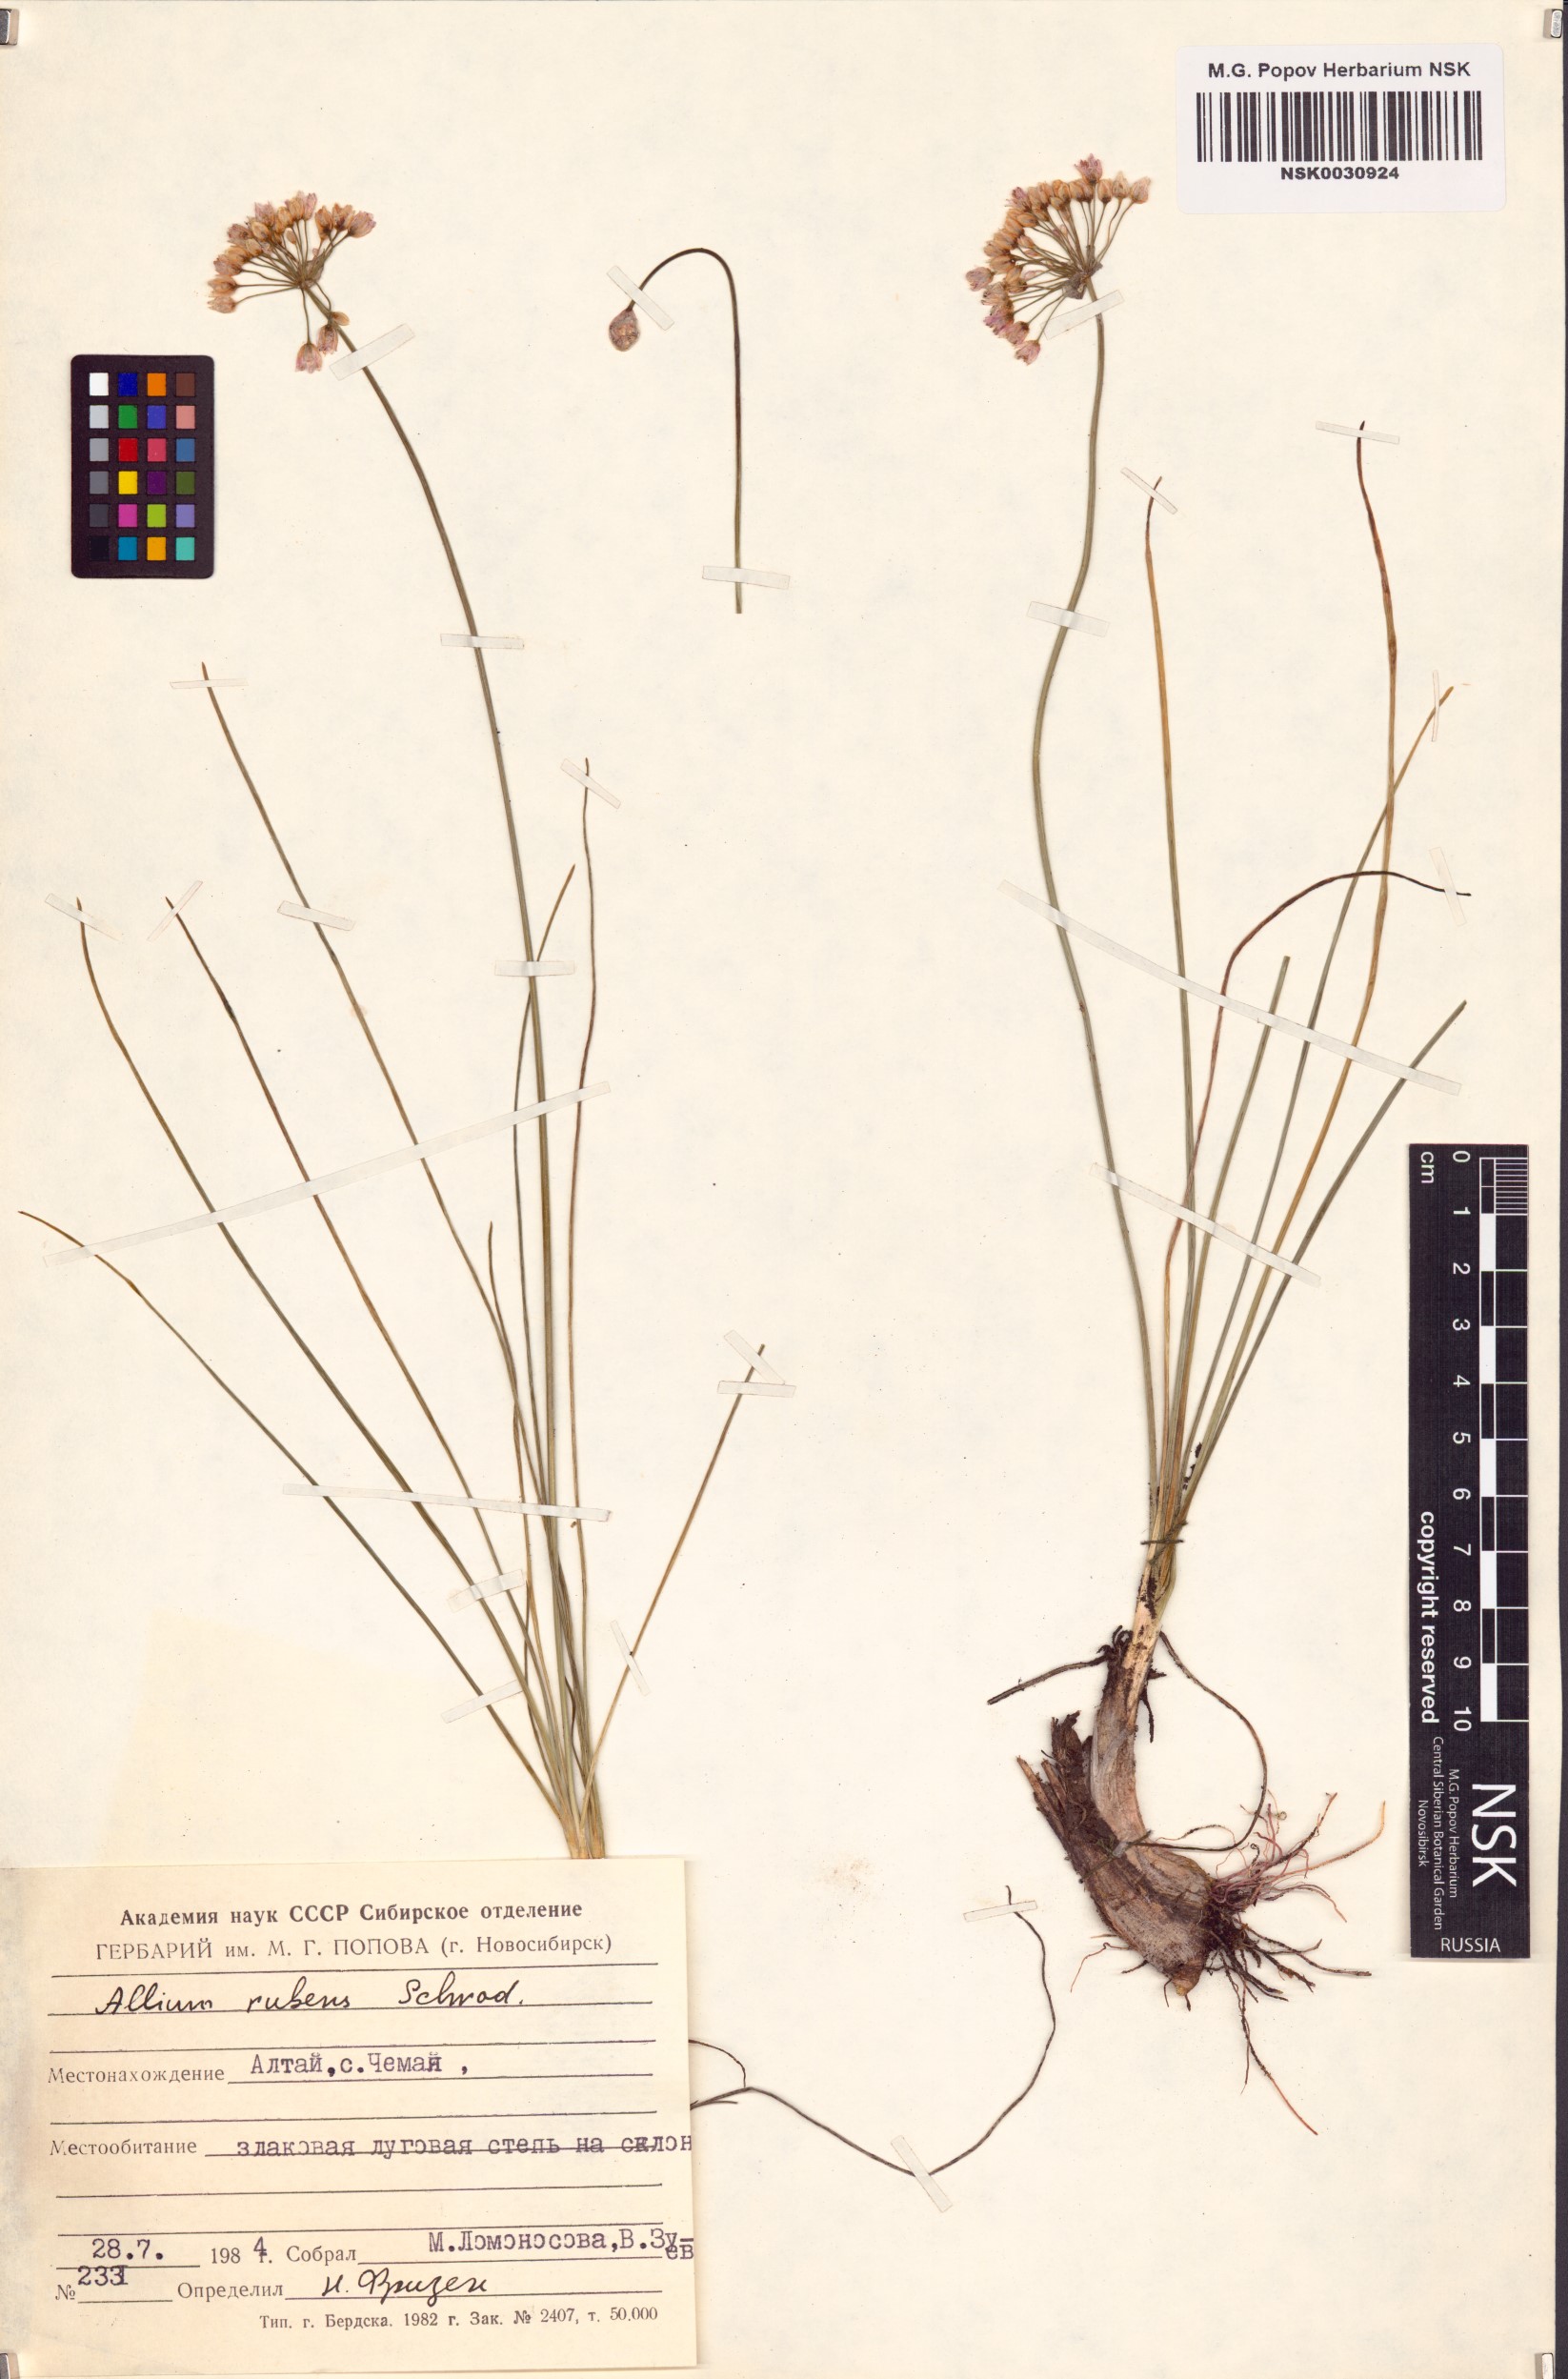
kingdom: Plantae
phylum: Tracheophyta
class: Liliopsida
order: Asparagales
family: Amaryllidaceae
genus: Allium
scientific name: Allium rubens
